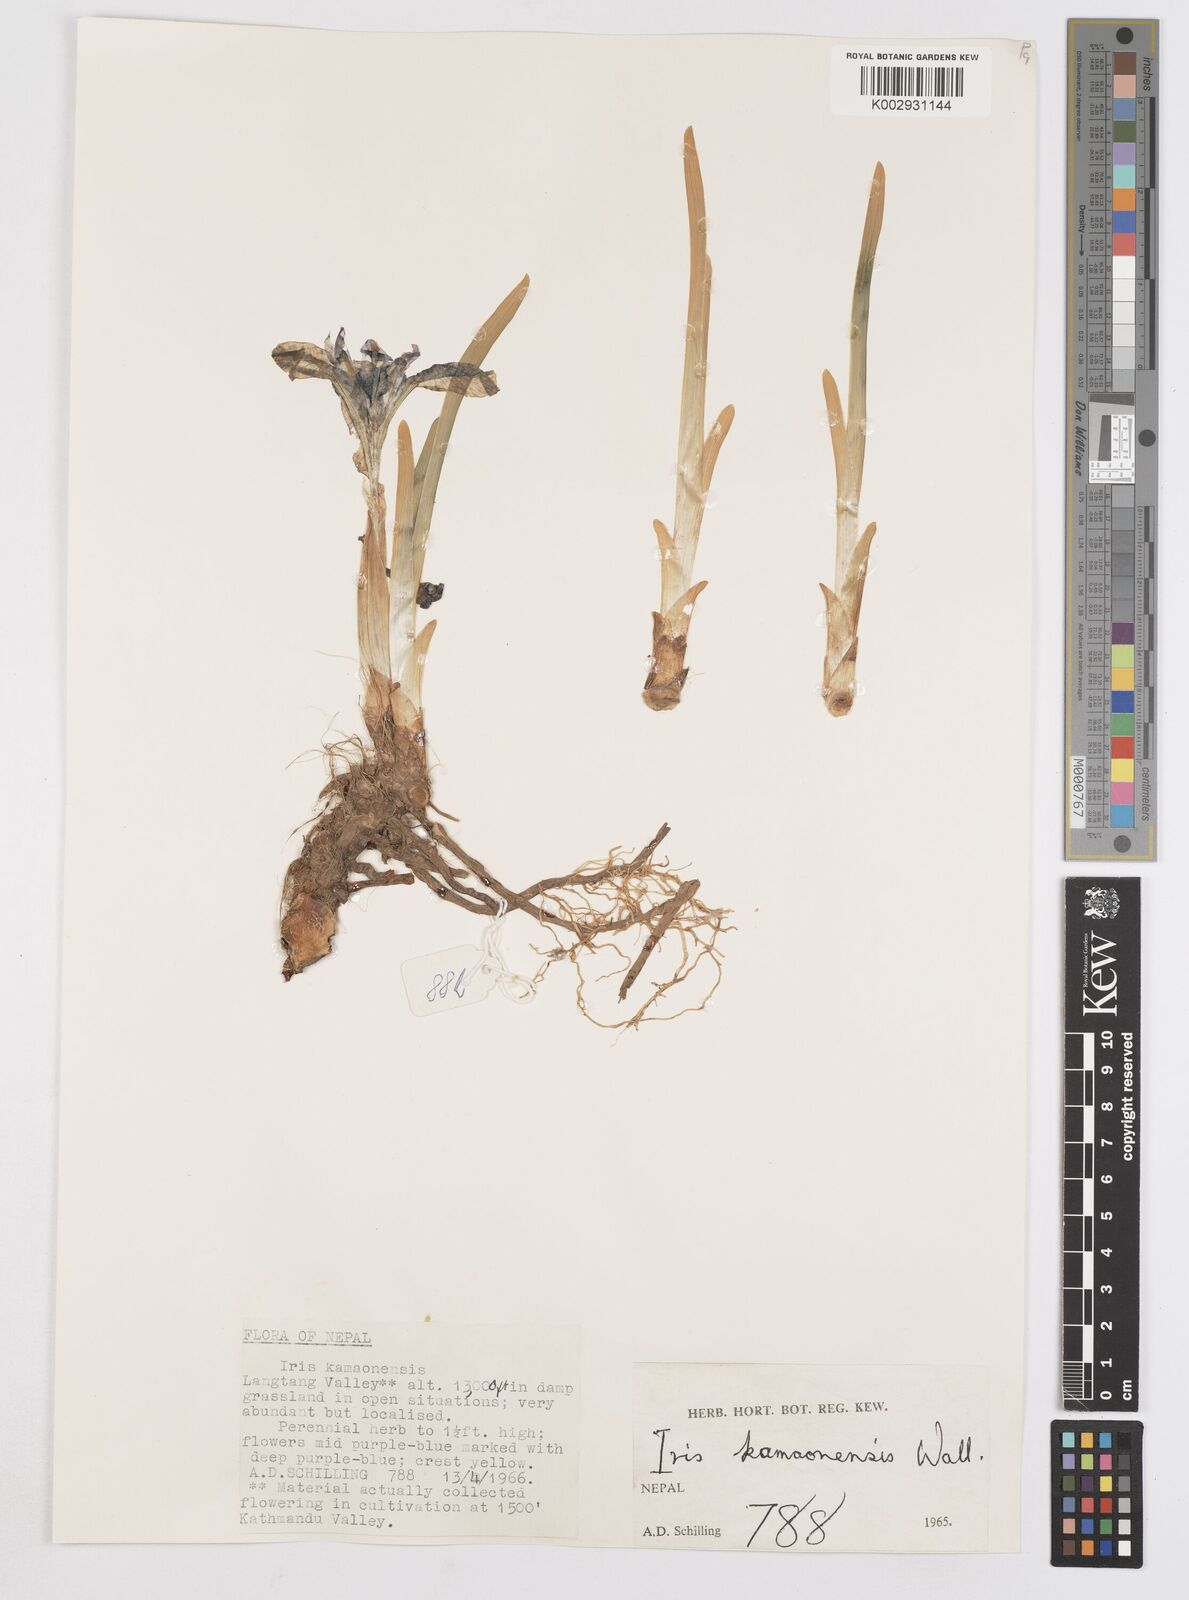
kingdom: Plantae
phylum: Tracheophyta
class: Liliopsida
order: Asparagales
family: Iridaceae
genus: Iris
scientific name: Iris kemaonensis
